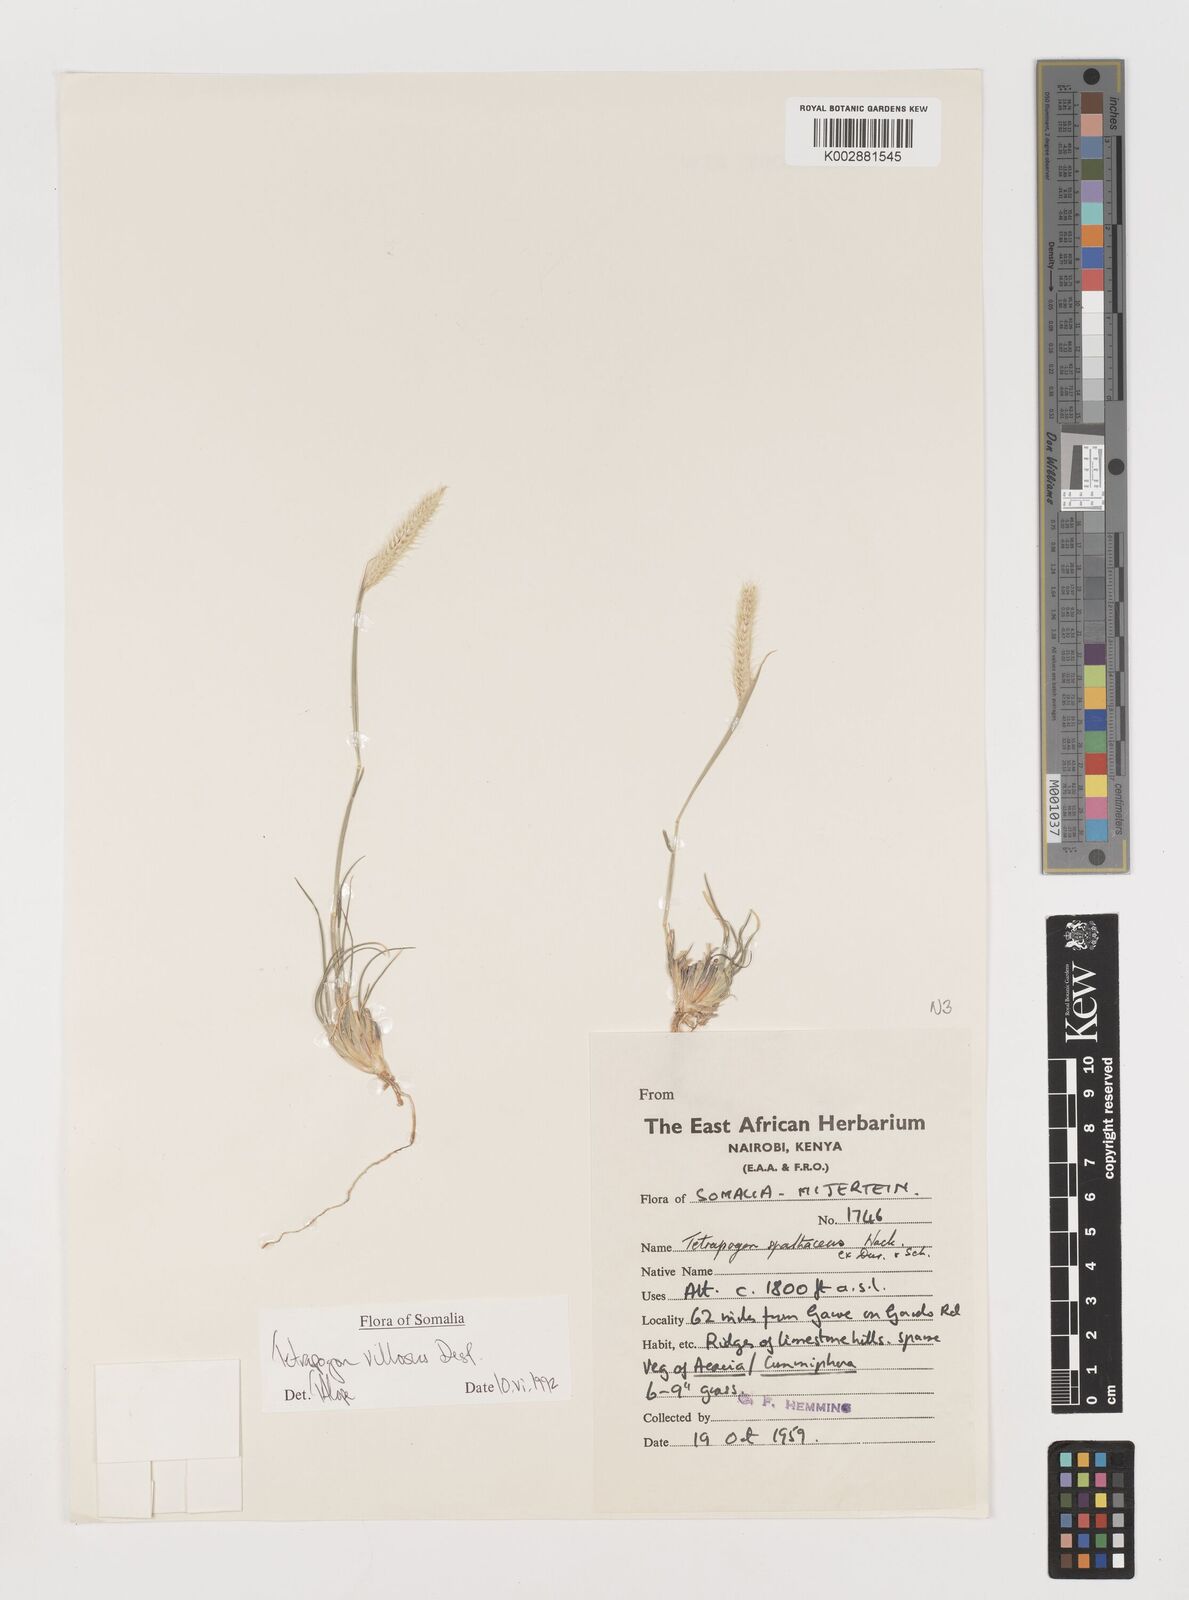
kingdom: Plantae
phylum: Tracheophyta
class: Liliopsida
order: Poales
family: Poaceae
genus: Tetrapogon
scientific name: Tetrapogon villosus
